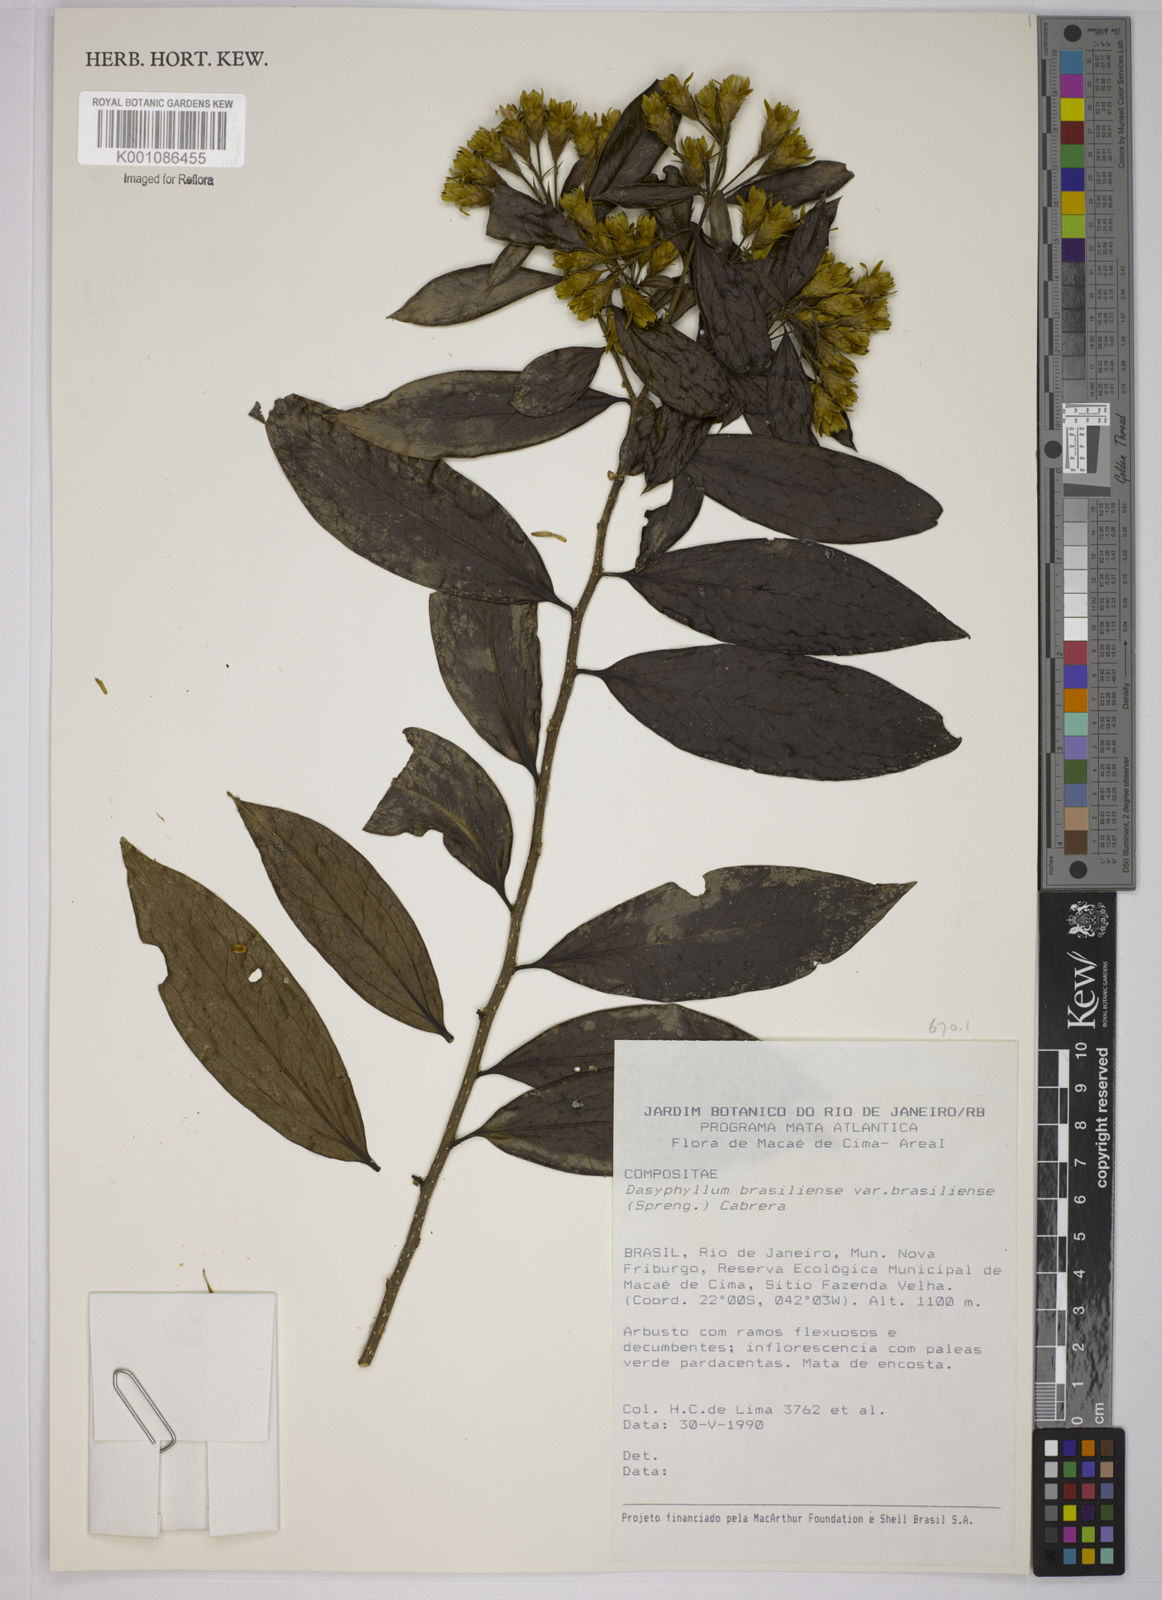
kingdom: Plantae
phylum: Tracheophyta
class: Magnoliopsida
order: Asterales
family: Asteraceae
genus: Dasyphyllum
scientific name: Dasyphyllum brasiliense
